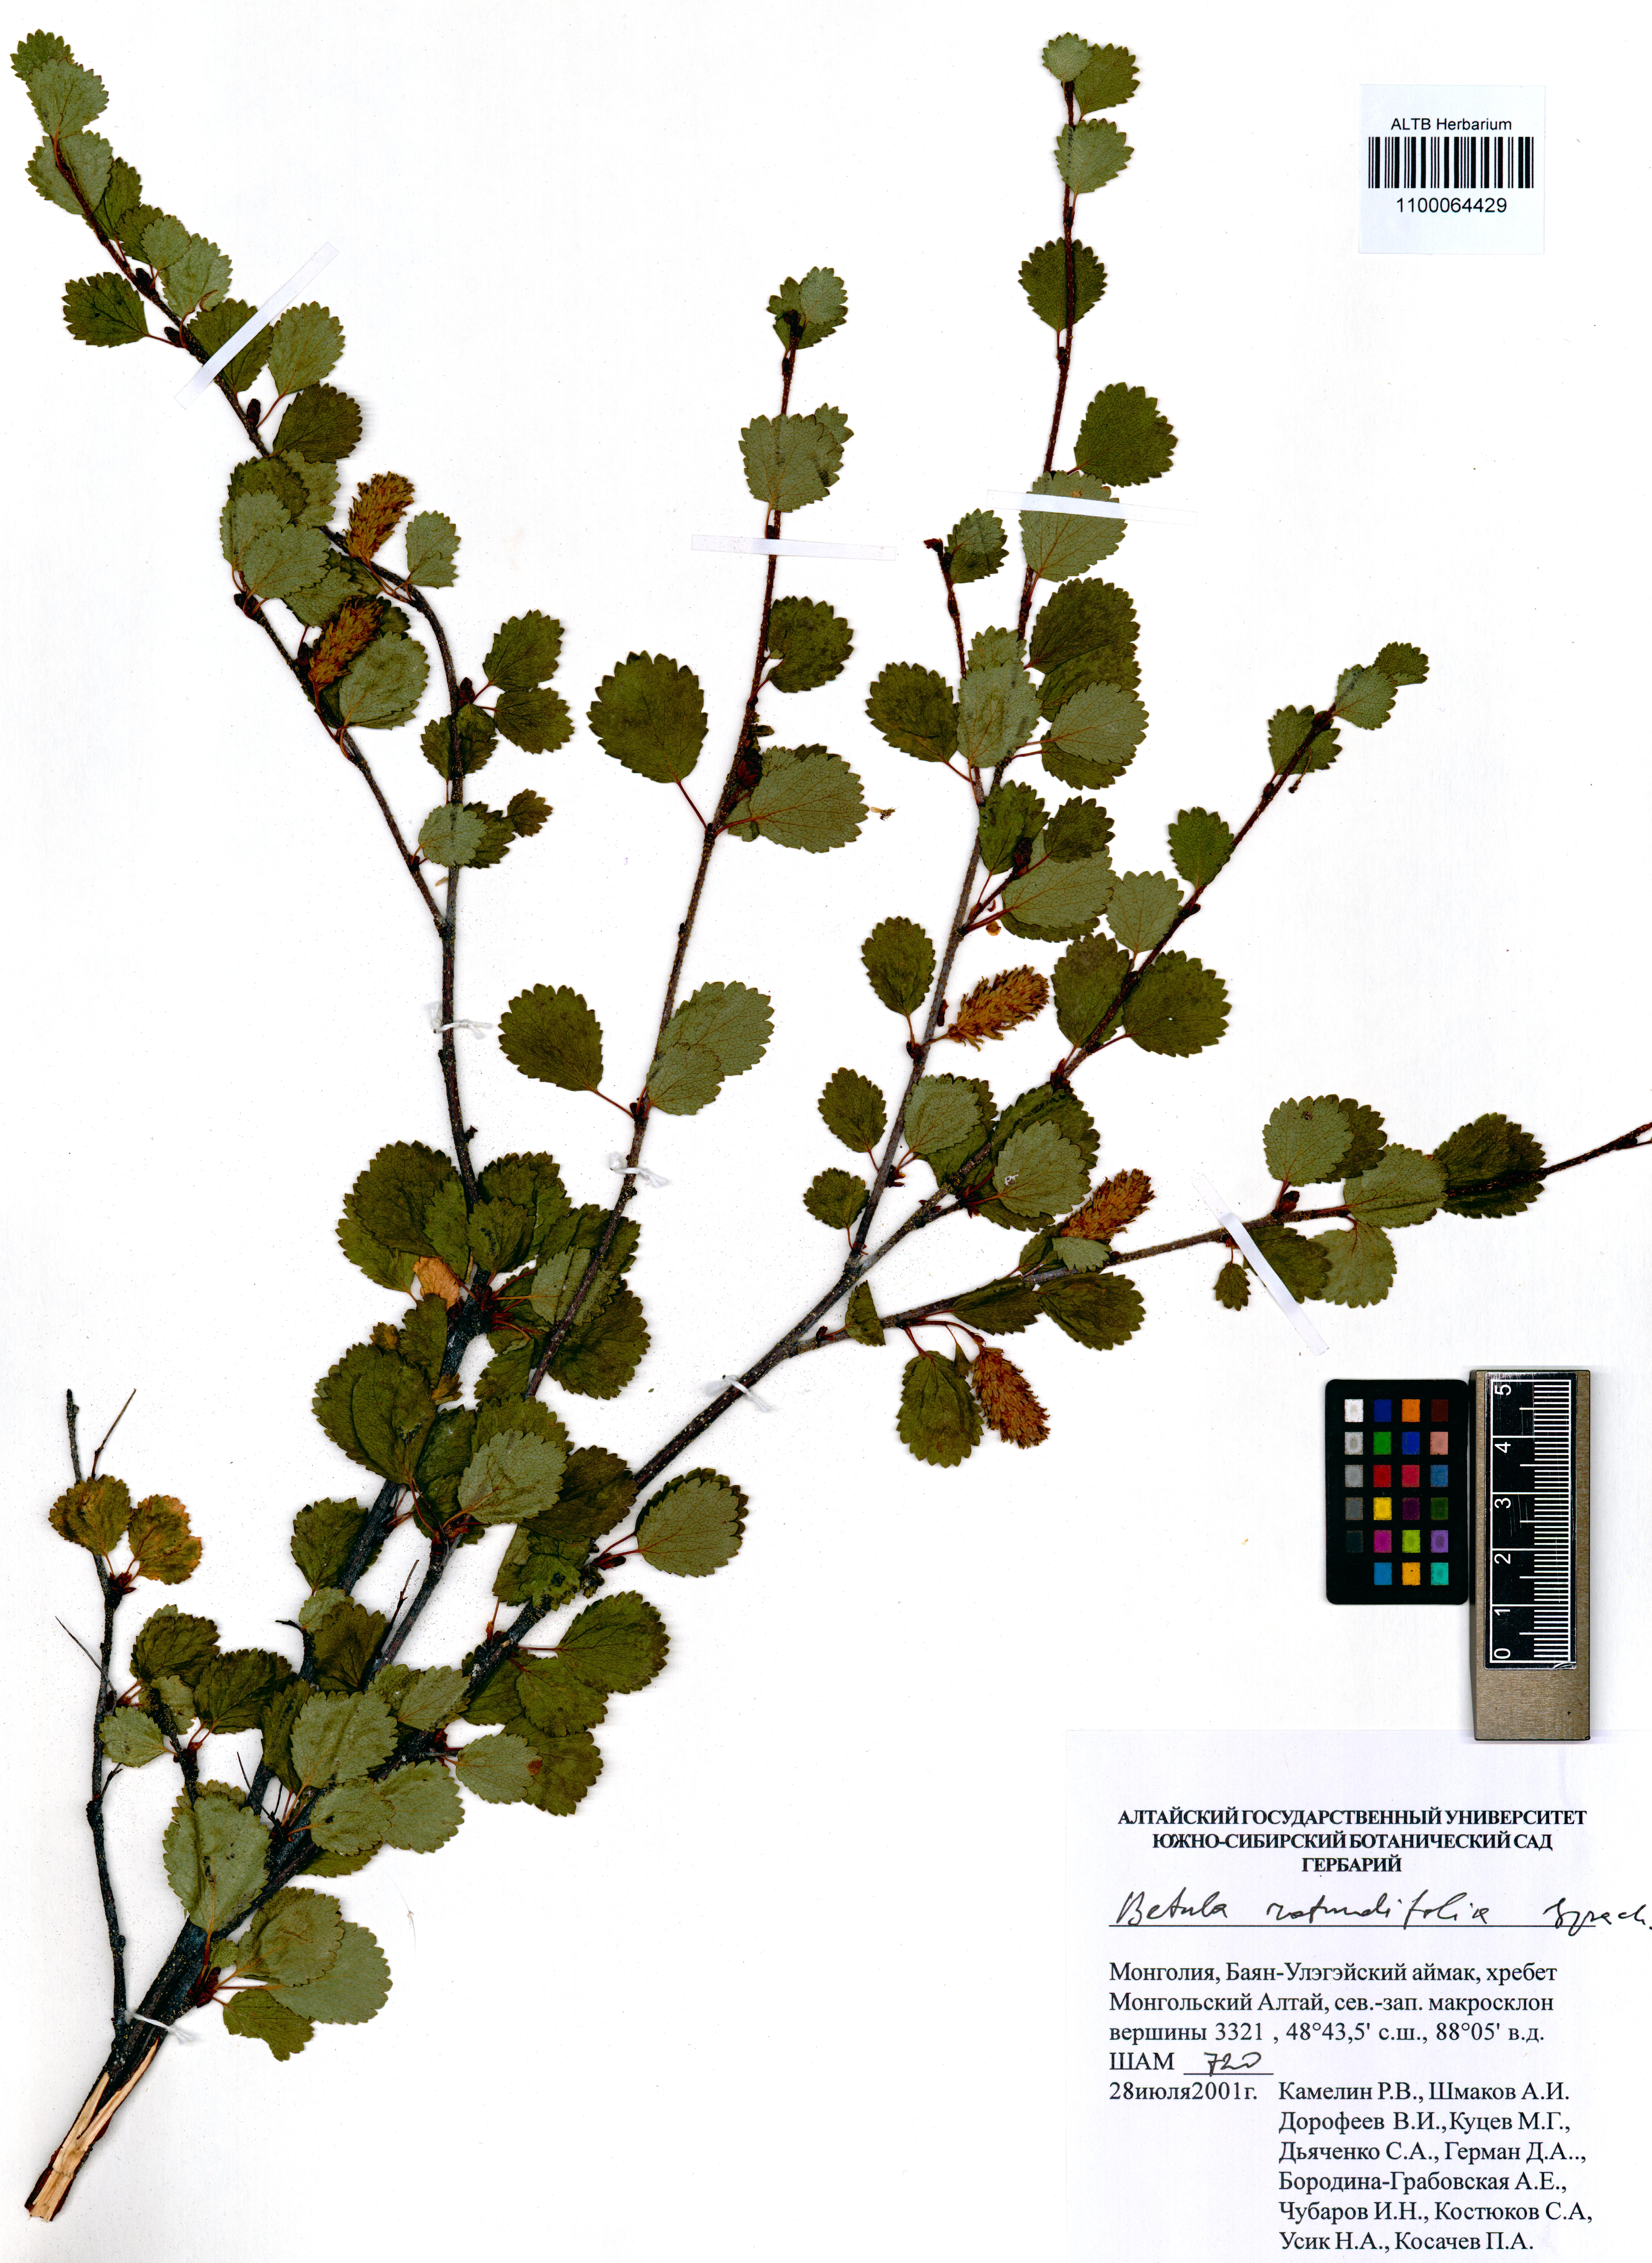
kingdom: Plantae
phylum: Tracheophyta
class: Magnoliopsida
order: Fagales
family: Betulaceae
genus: Betula
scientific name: Betula glandulosa
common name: Dwarf birch
